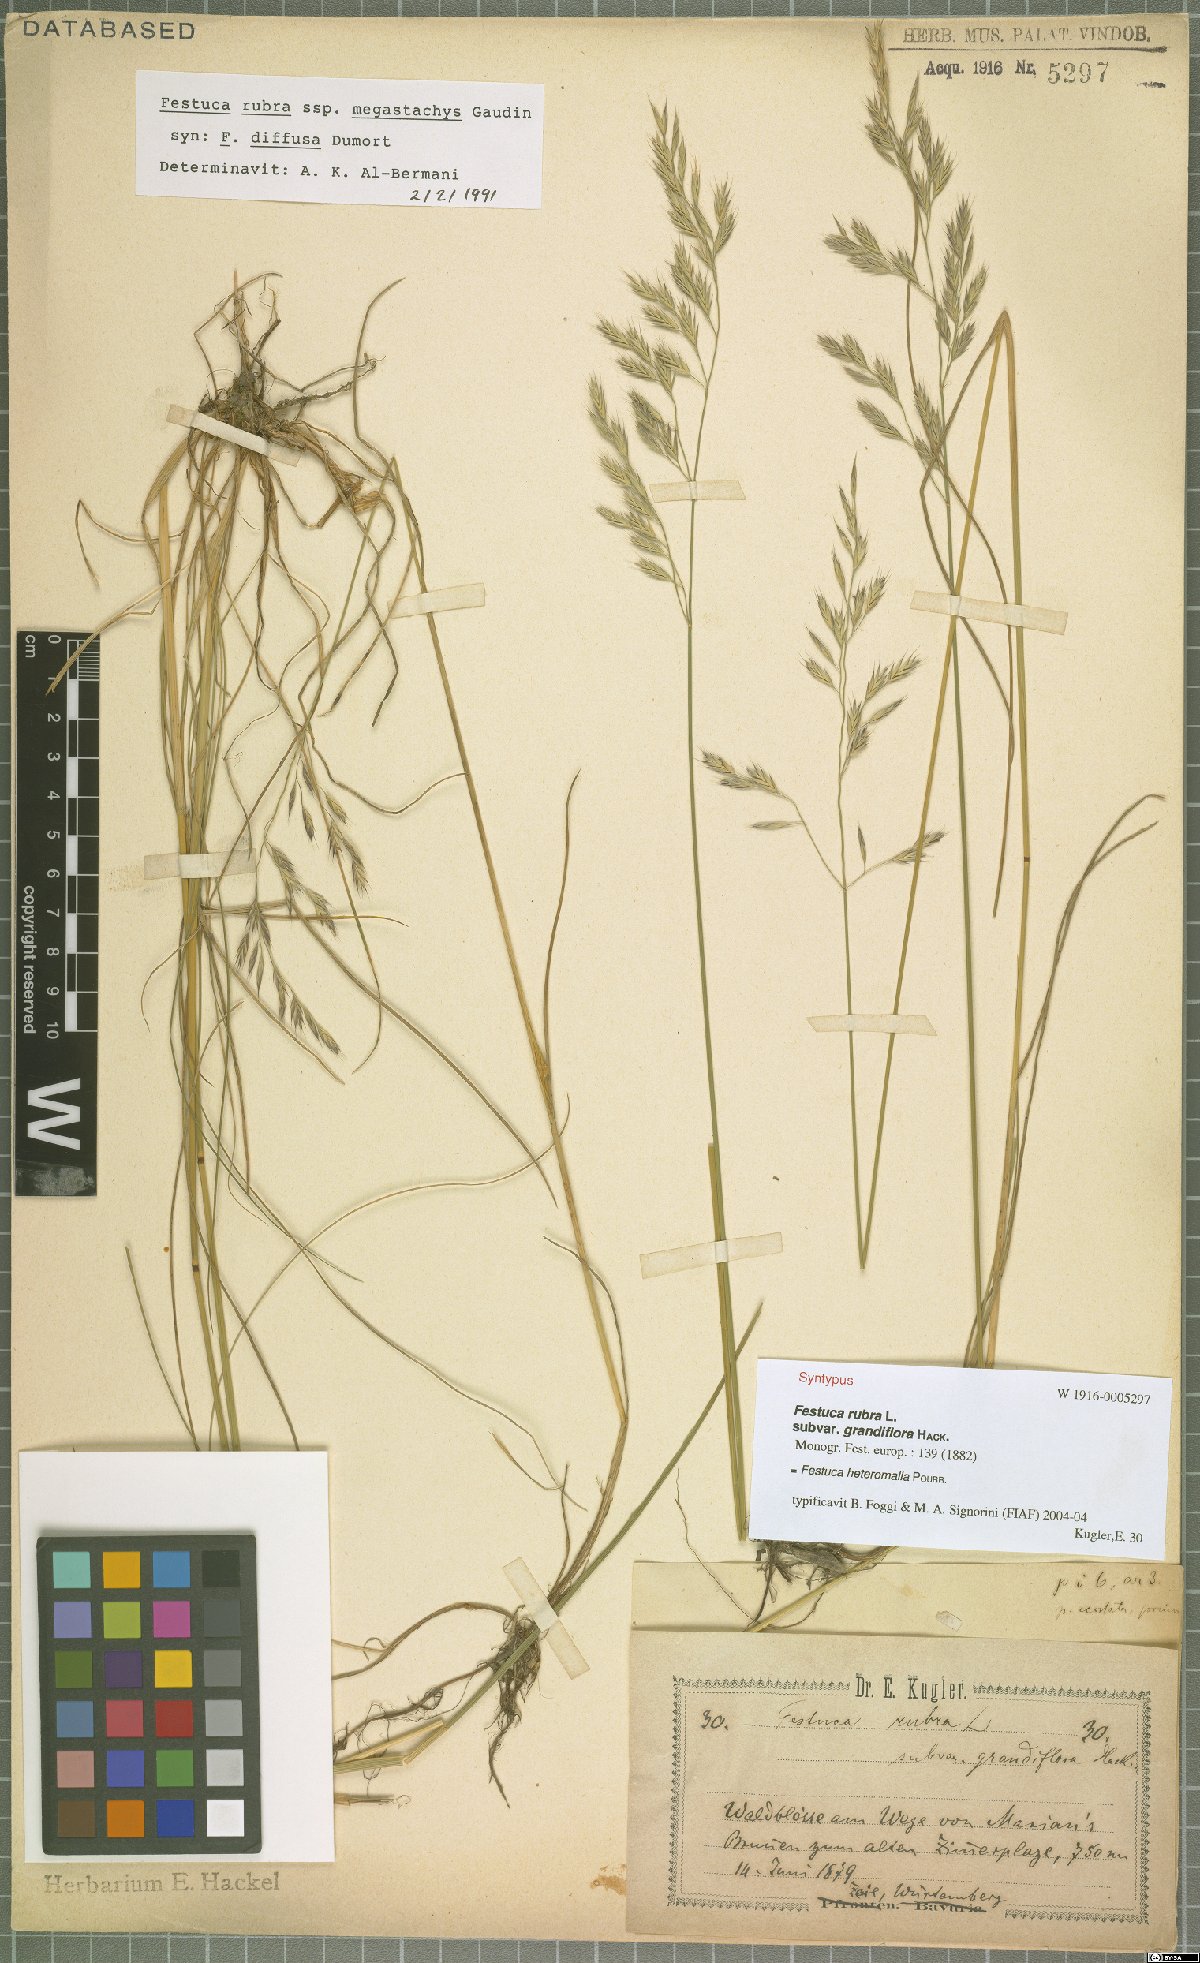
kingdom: Plantae
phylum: Tracheophyta
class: Liliopsida
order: Poales
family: Poaceae
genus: Festuca
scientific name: Festuca heteromalla
